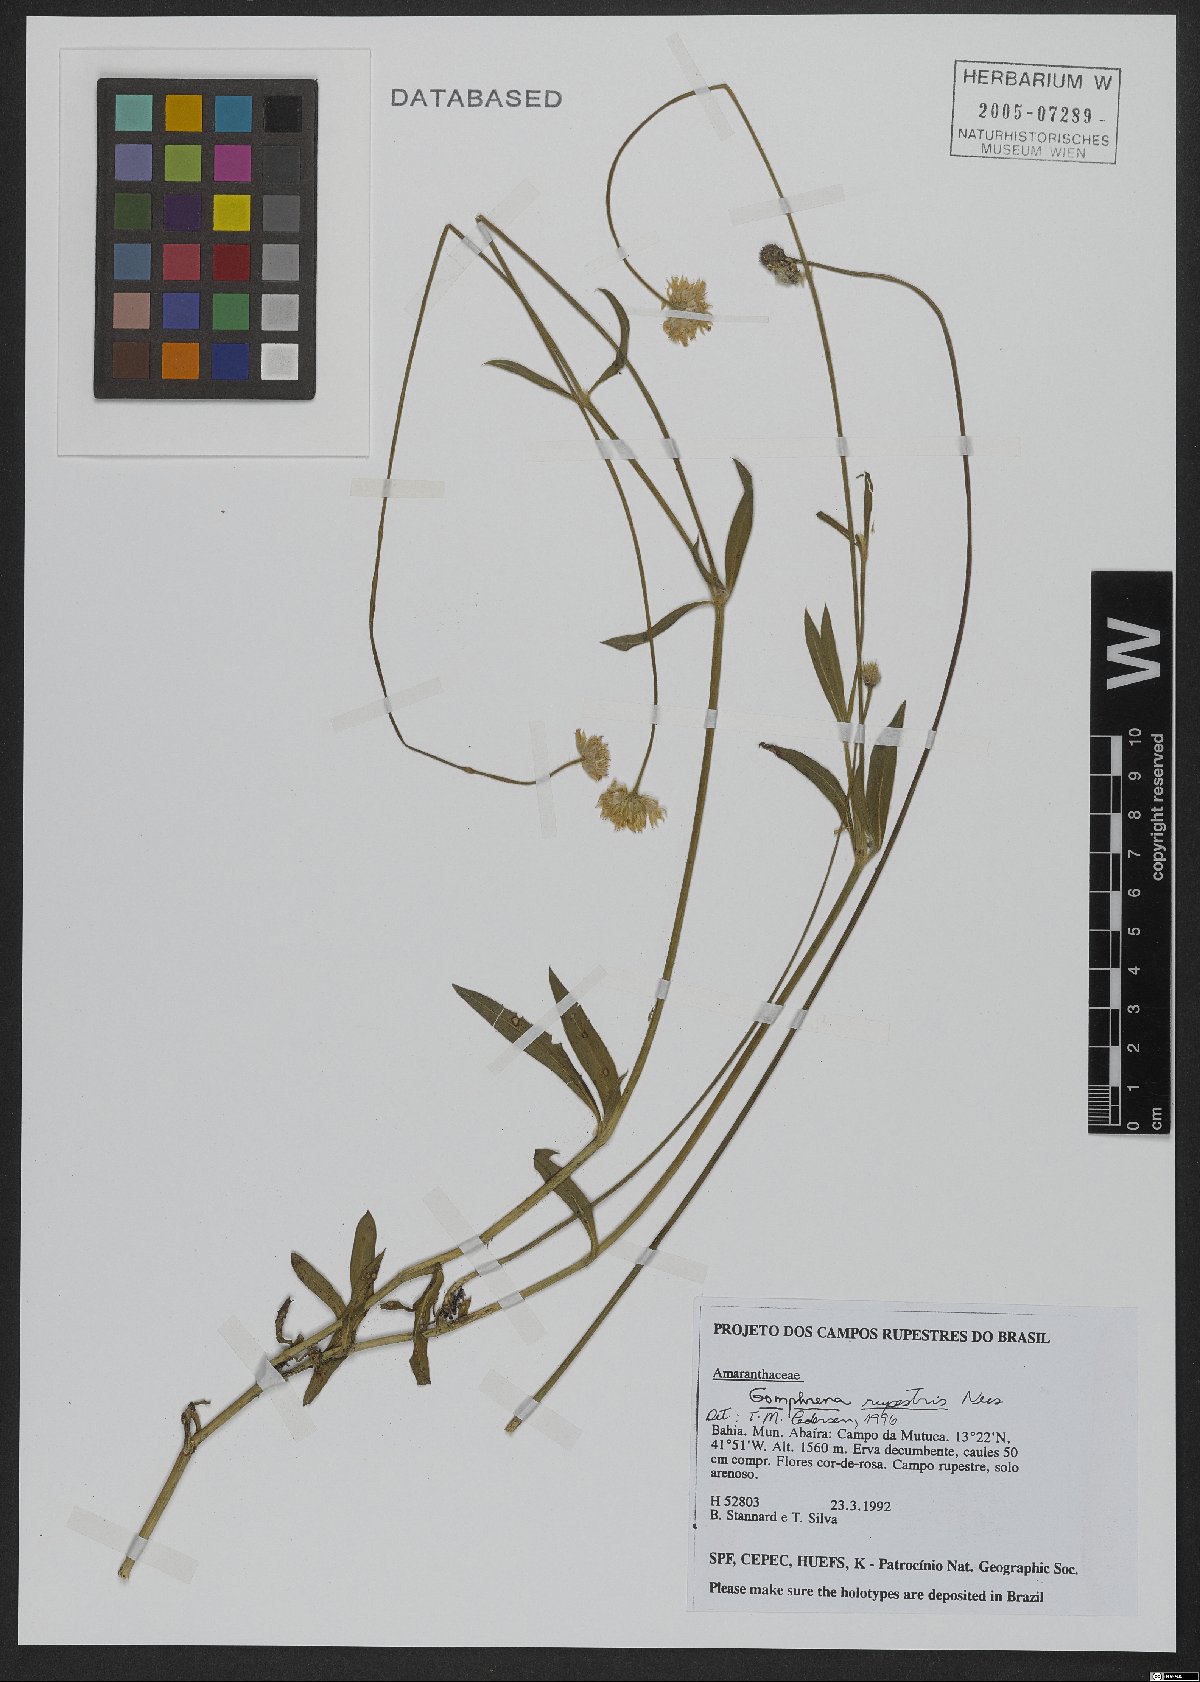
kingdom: Plantae
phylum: Tracheophyta
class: Magnoliopsida
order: Caryophyllales
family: Amaranthaceae
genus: Gomphrena
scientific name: Gomphrena rupestris
